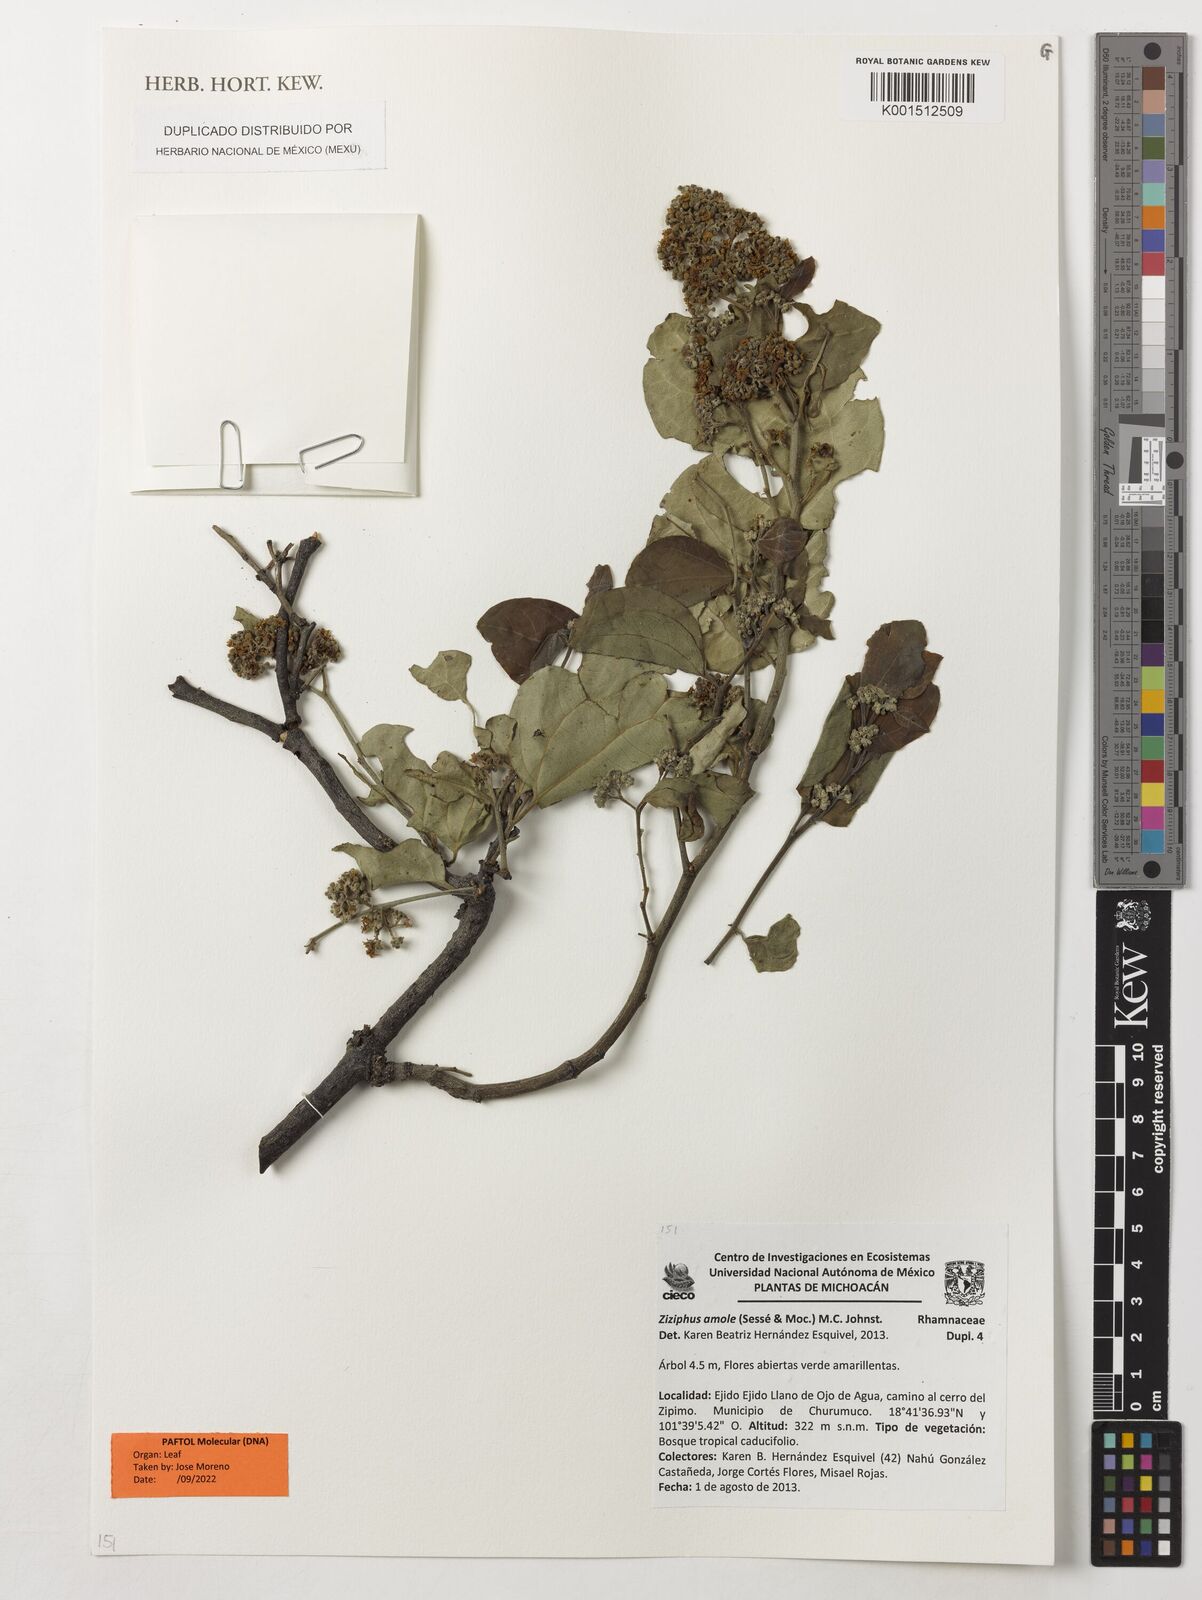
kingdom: Plantae
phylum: Tracheophyta
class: Magnoliopsida
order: Rosales
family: Rhamnaceae
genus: Sarcomphalus
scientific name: Sarcomphalus amole
